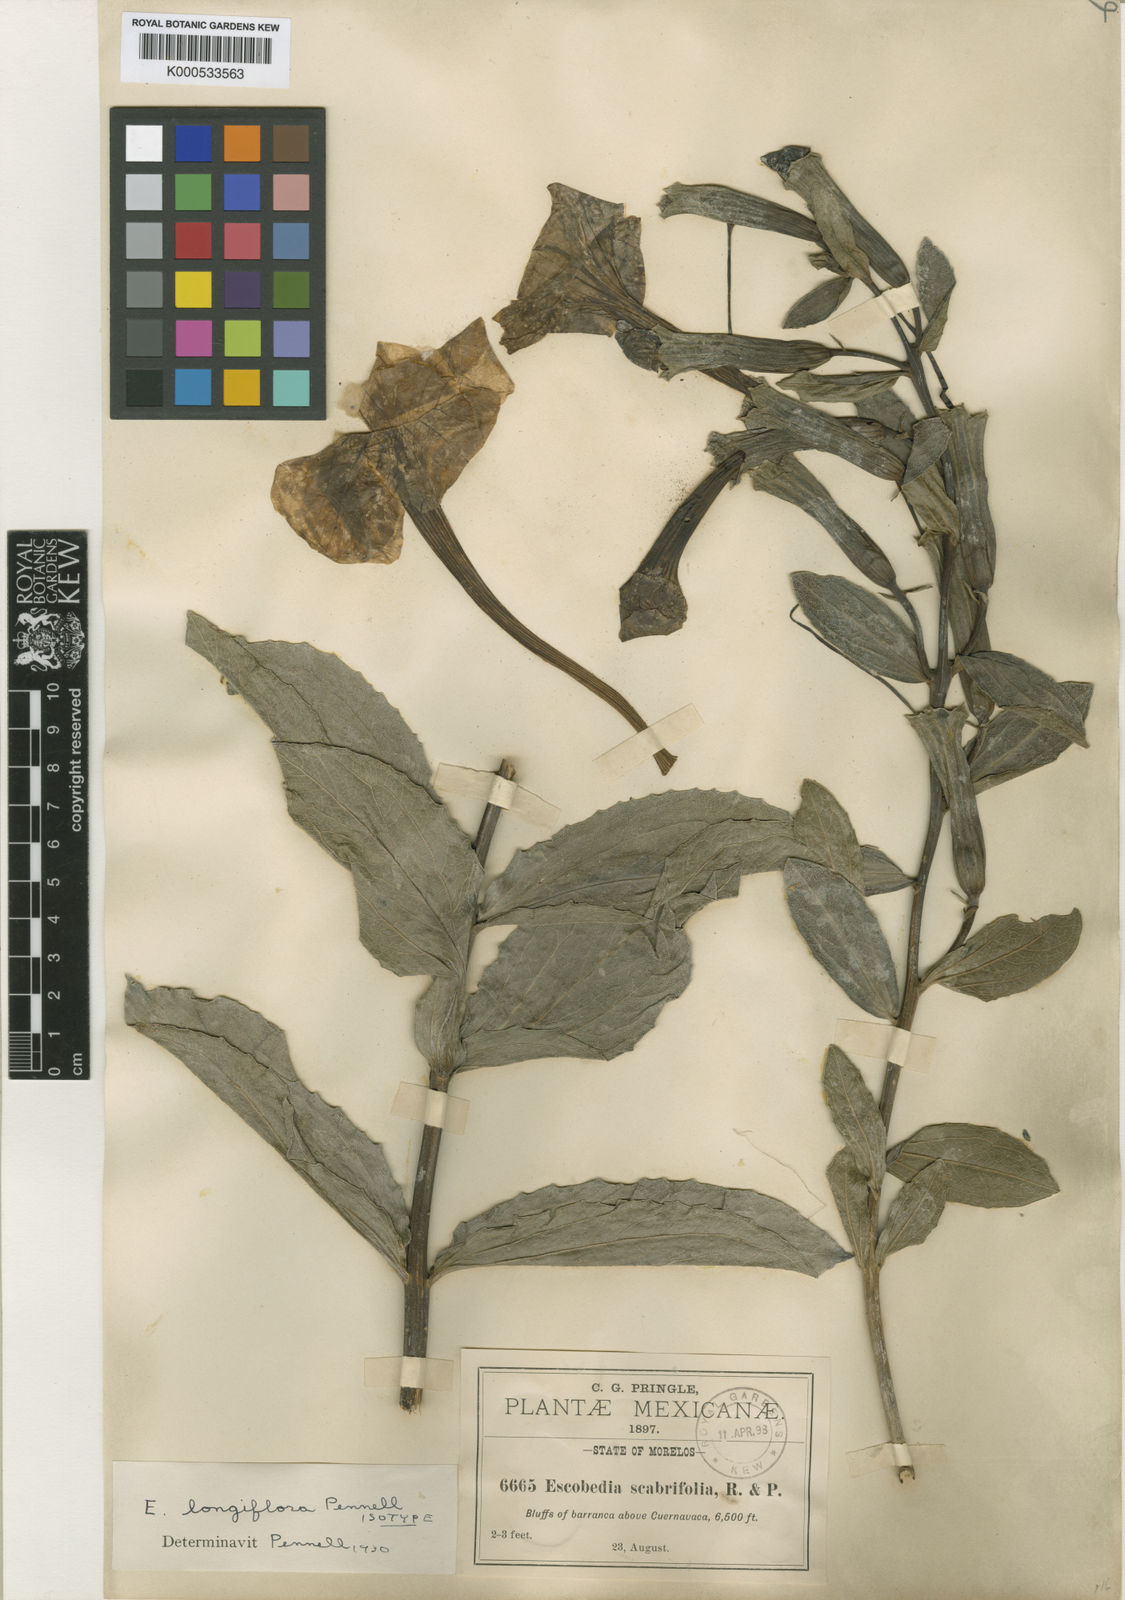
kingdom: Plantae
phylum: Tracheophyta
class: Magnoliopsida
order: Lamiales
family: Orobanchaceae
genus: Escobedia
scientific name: Escobedia longiflora
